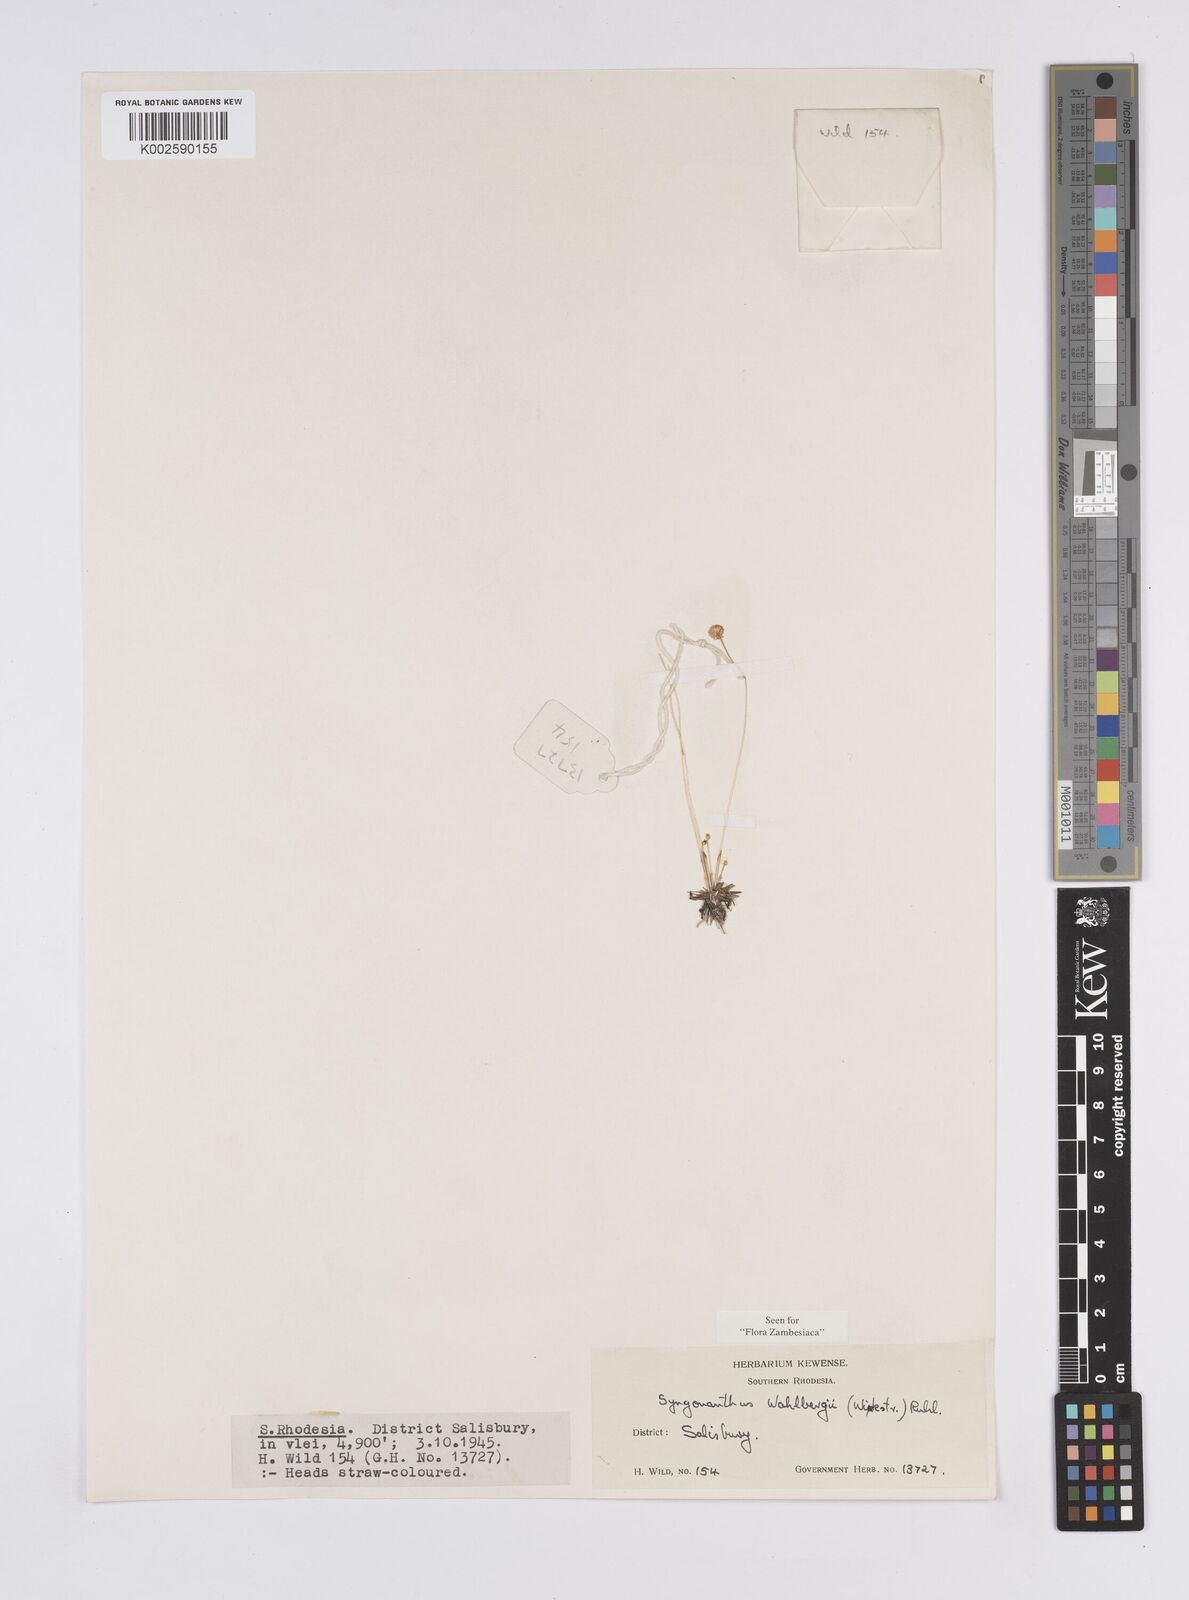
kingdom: Plantae
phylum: Tracheophyta
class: Liliopsida
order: Poales
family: Eriocaulaceae
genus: Syngonanthus
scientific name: Syngonanthus wahlbergii
